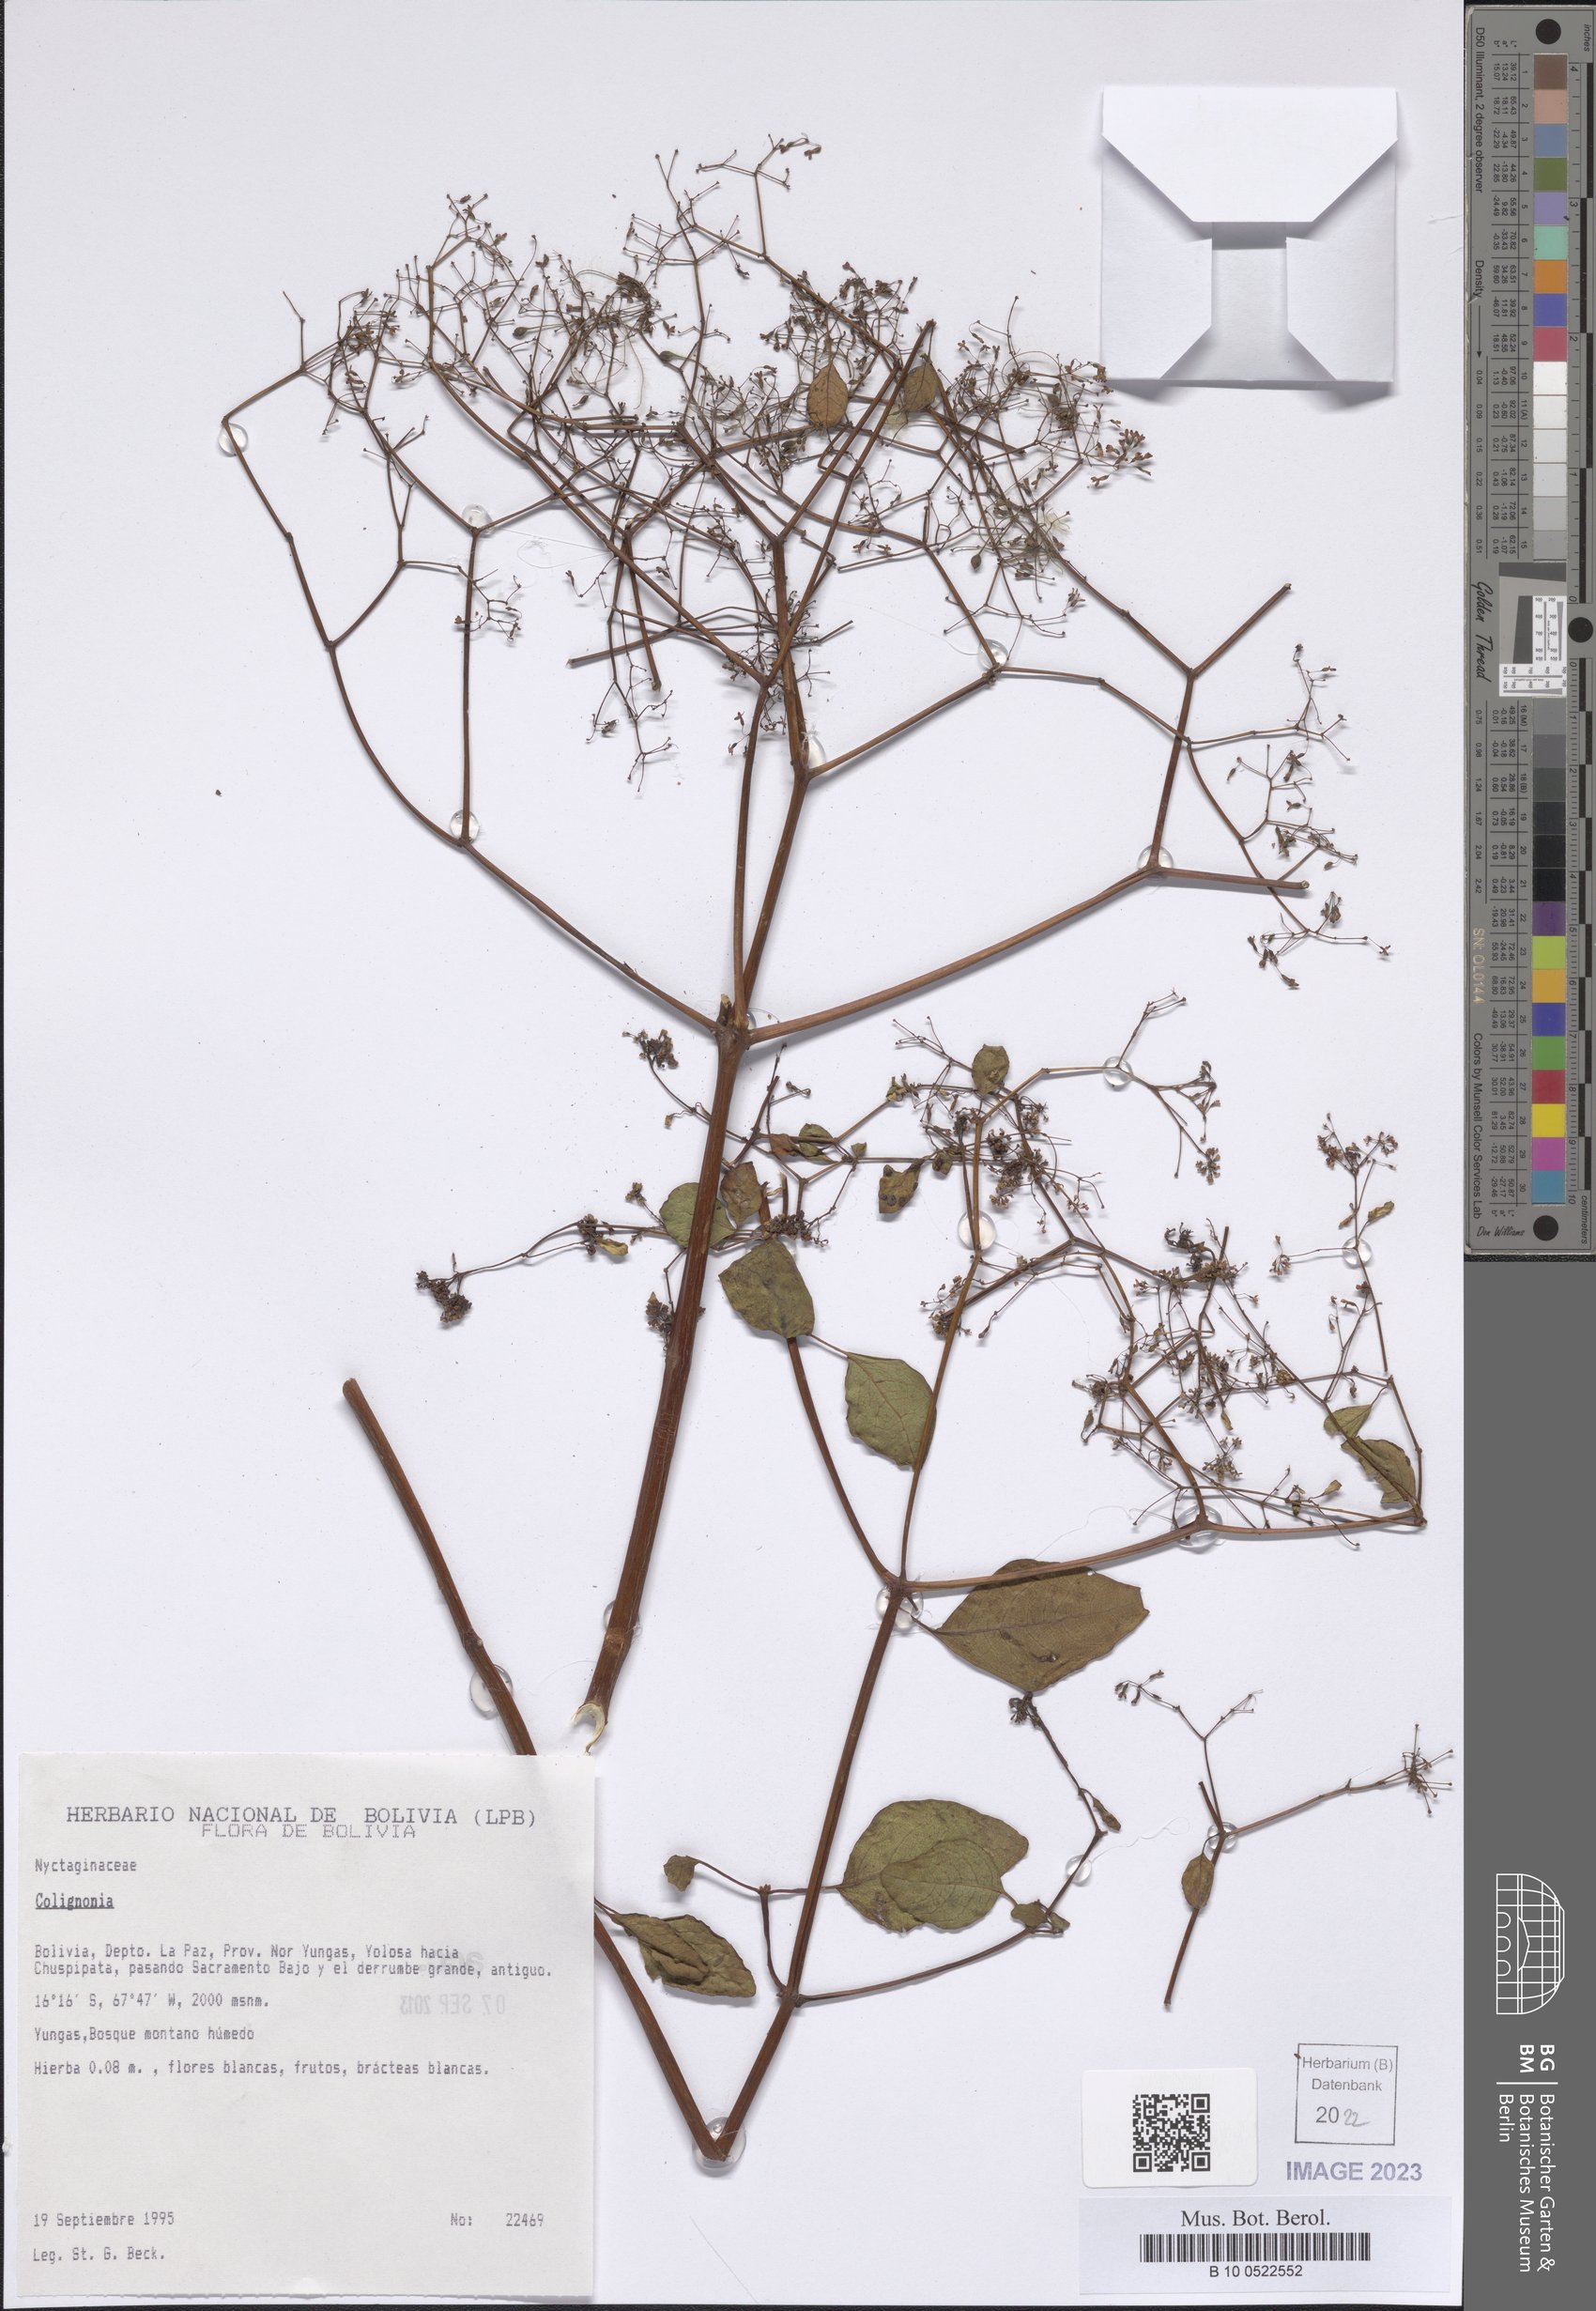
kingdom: Plantae
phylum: Tracheophyta
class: Magnoliopsida
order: Caryophyllales
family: Nyctaginaceae
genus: Colignonia
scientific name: Colignonia
